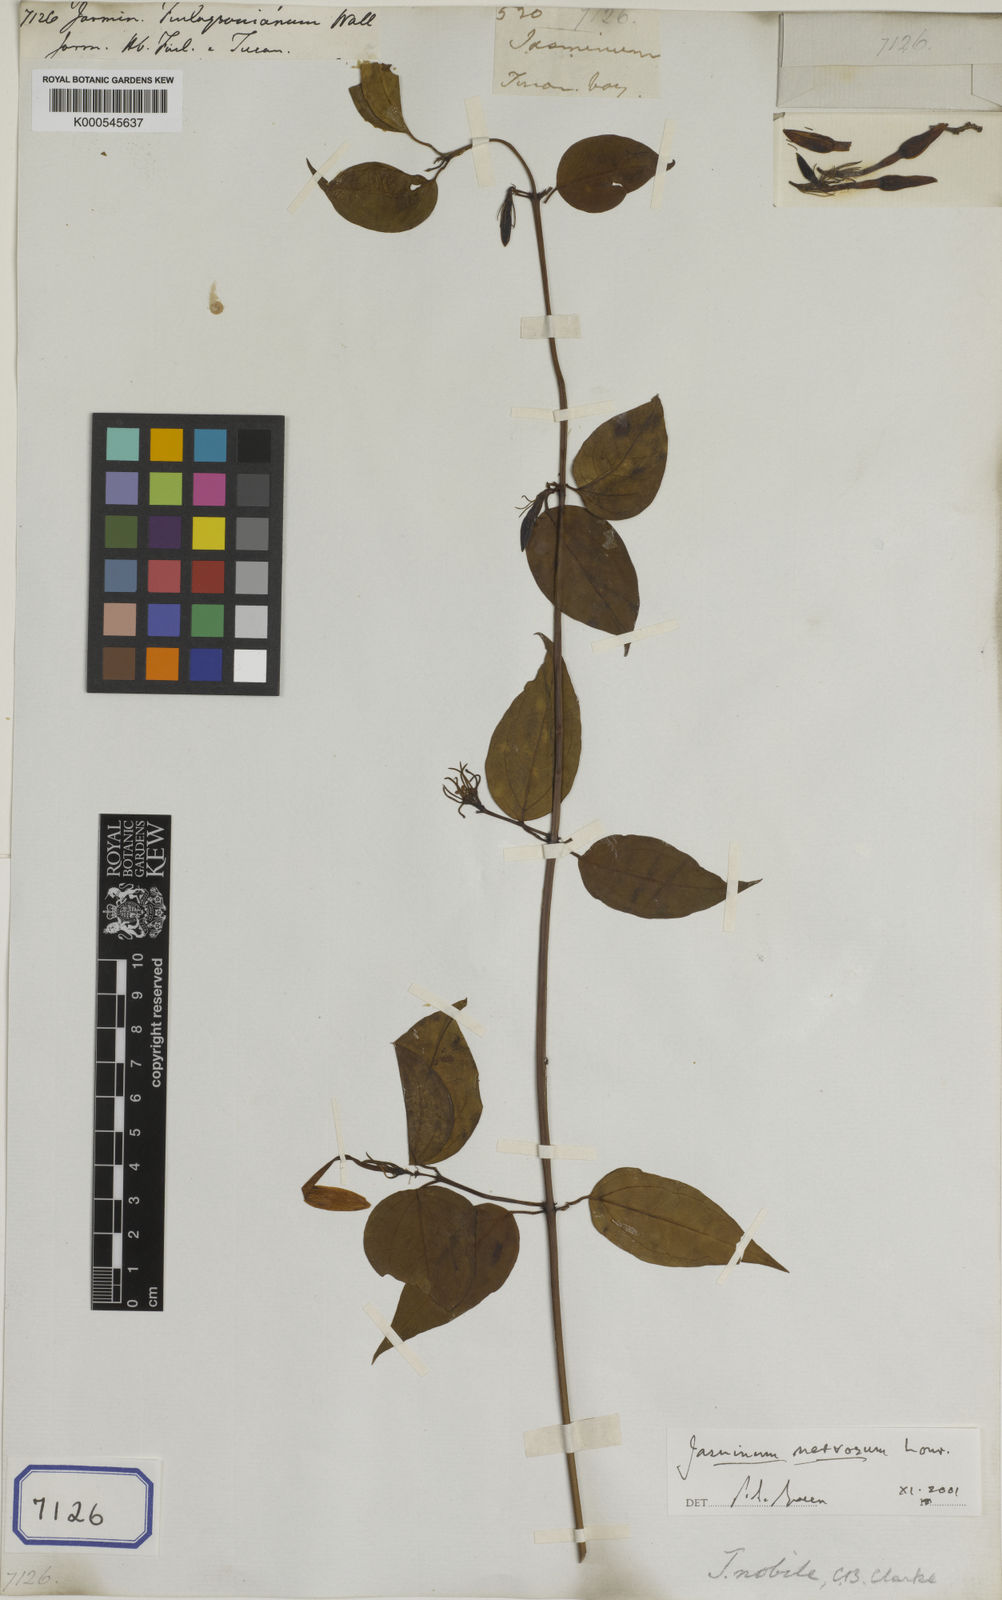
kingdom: Plantae
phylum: Tracheophyta
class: Magnoliopsida
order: Lamiales
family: Oleaceae
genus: Jasminum
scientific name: Jasminum nervosum
